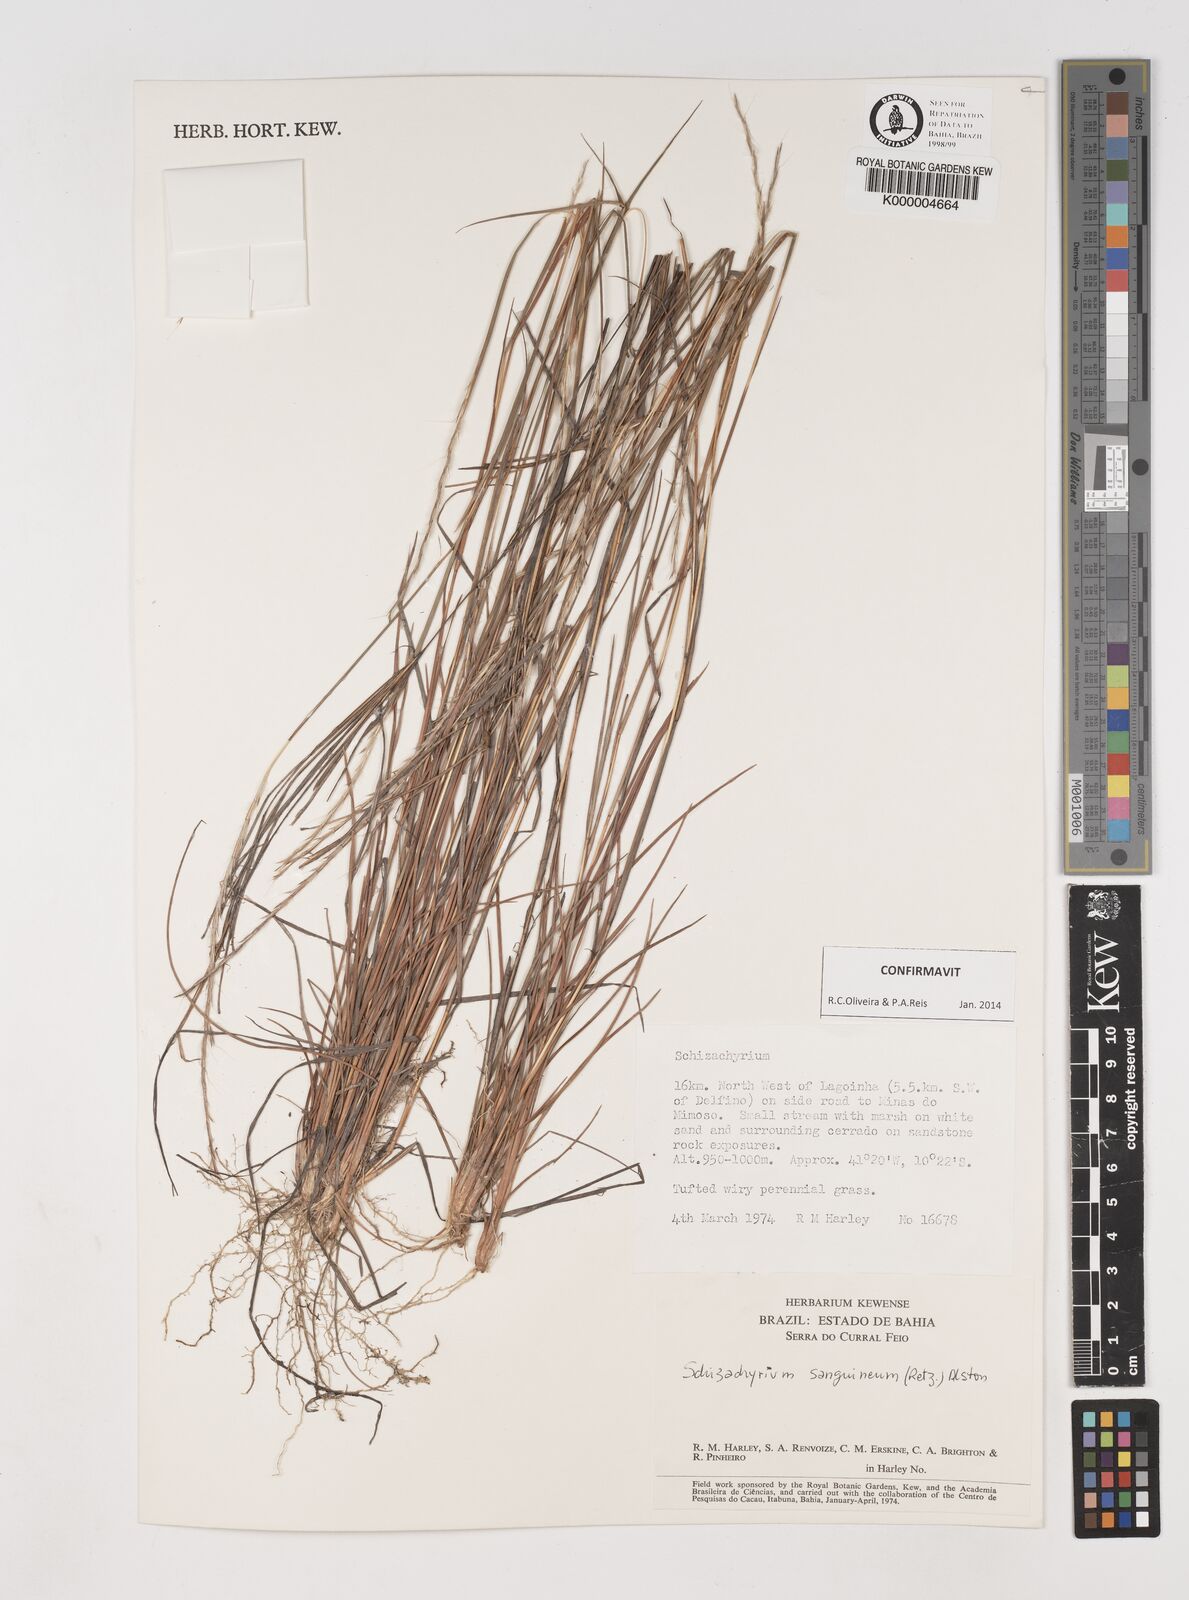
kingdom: Plantae
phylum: Tracheophyta
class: Liliopsida
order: Poales
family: Poaceae
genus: Schizachyrium
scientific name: Schizachyrium sanguineum
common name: Crimson bluestem
